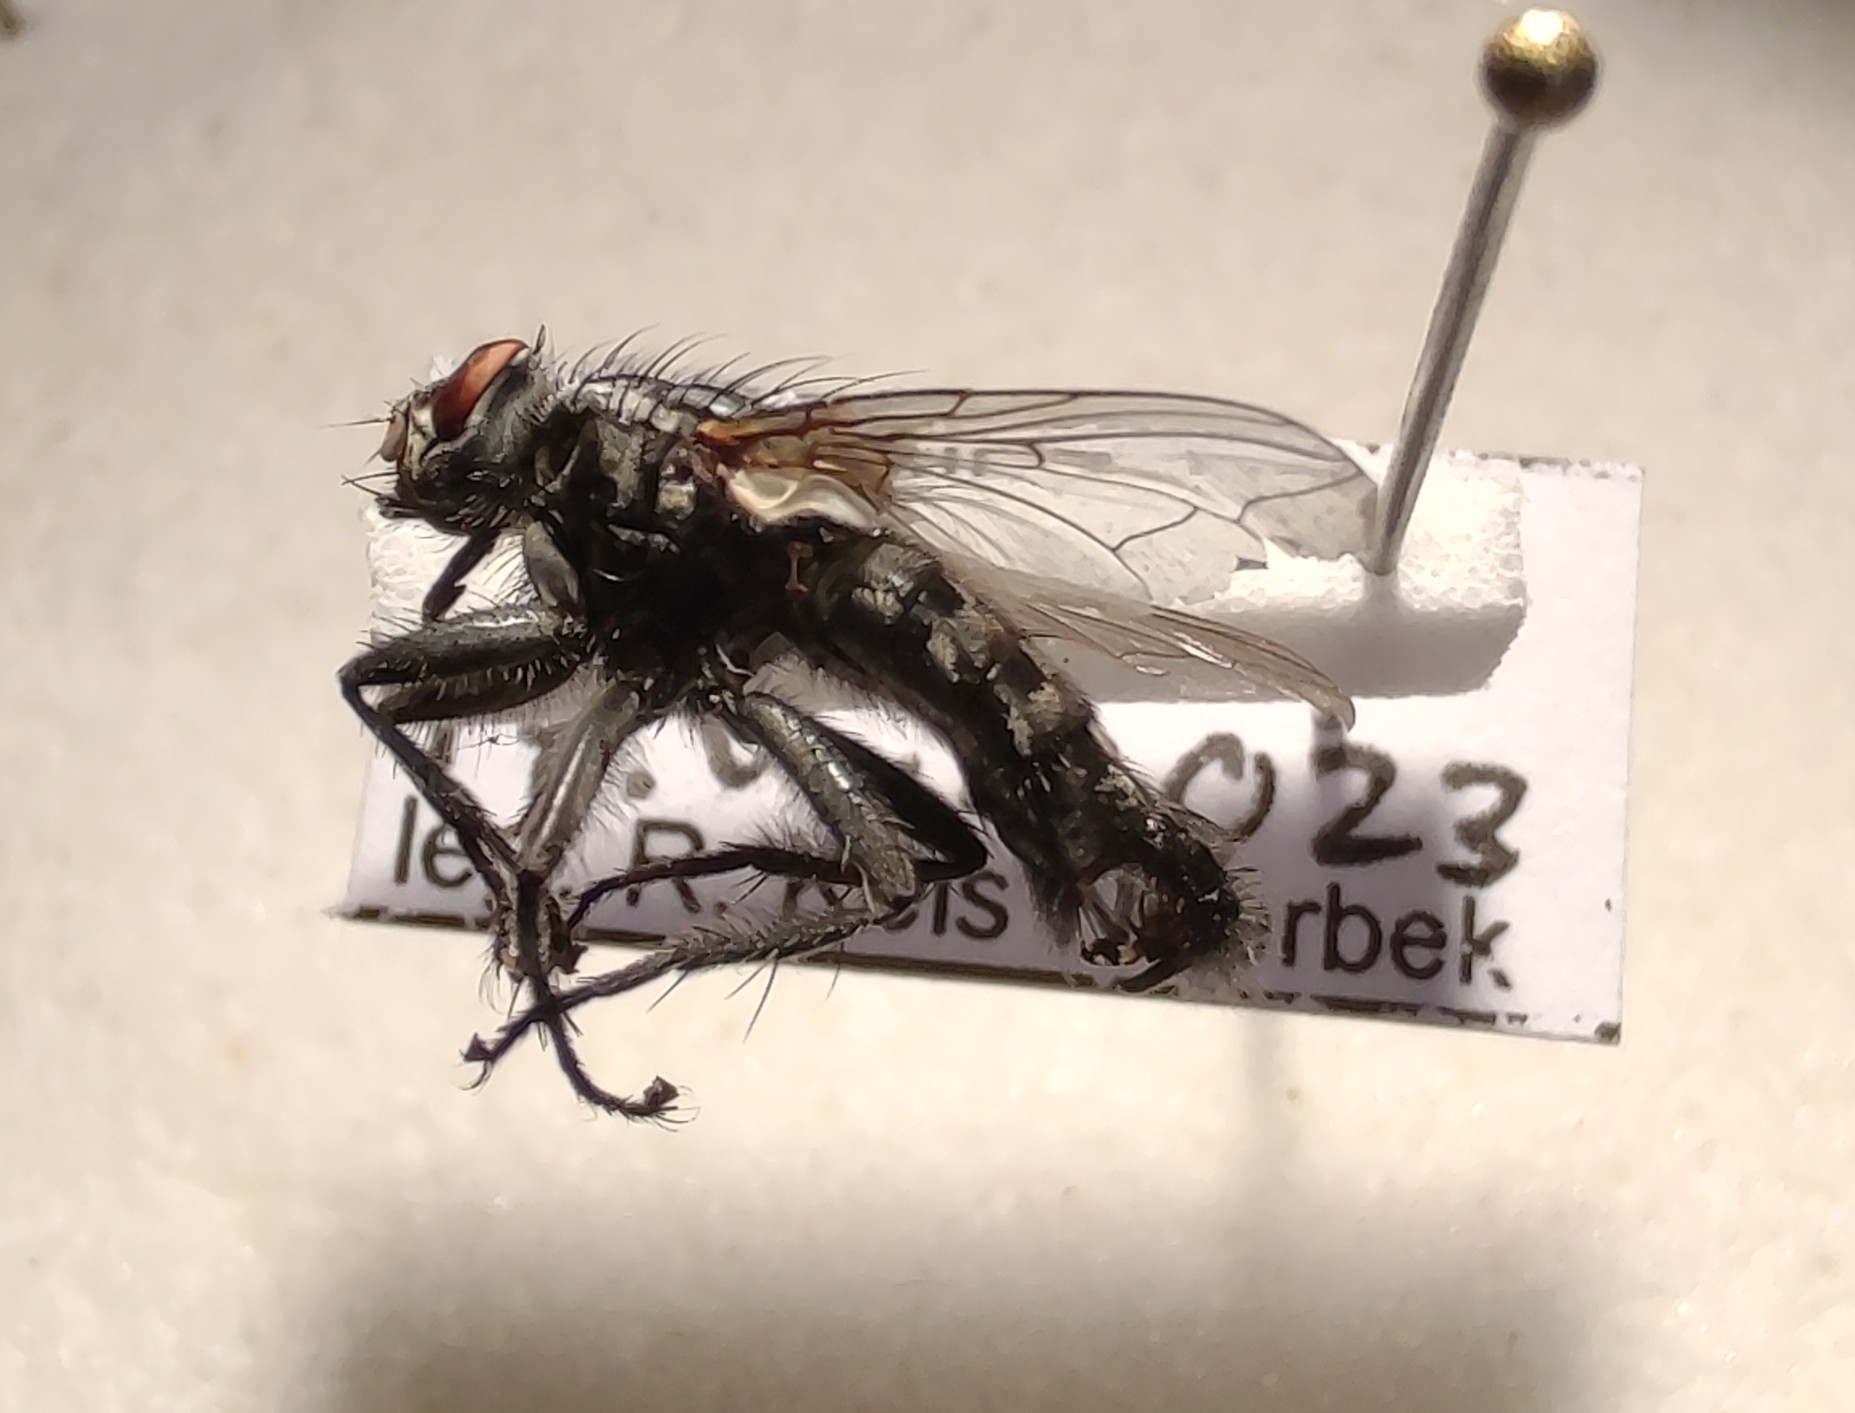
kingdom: Animalia
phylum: Arthropoda
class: Insecta
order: Diptera
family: Sarcophagidae
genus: Sarcophaga
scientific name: Sarcophaga lehmanni
